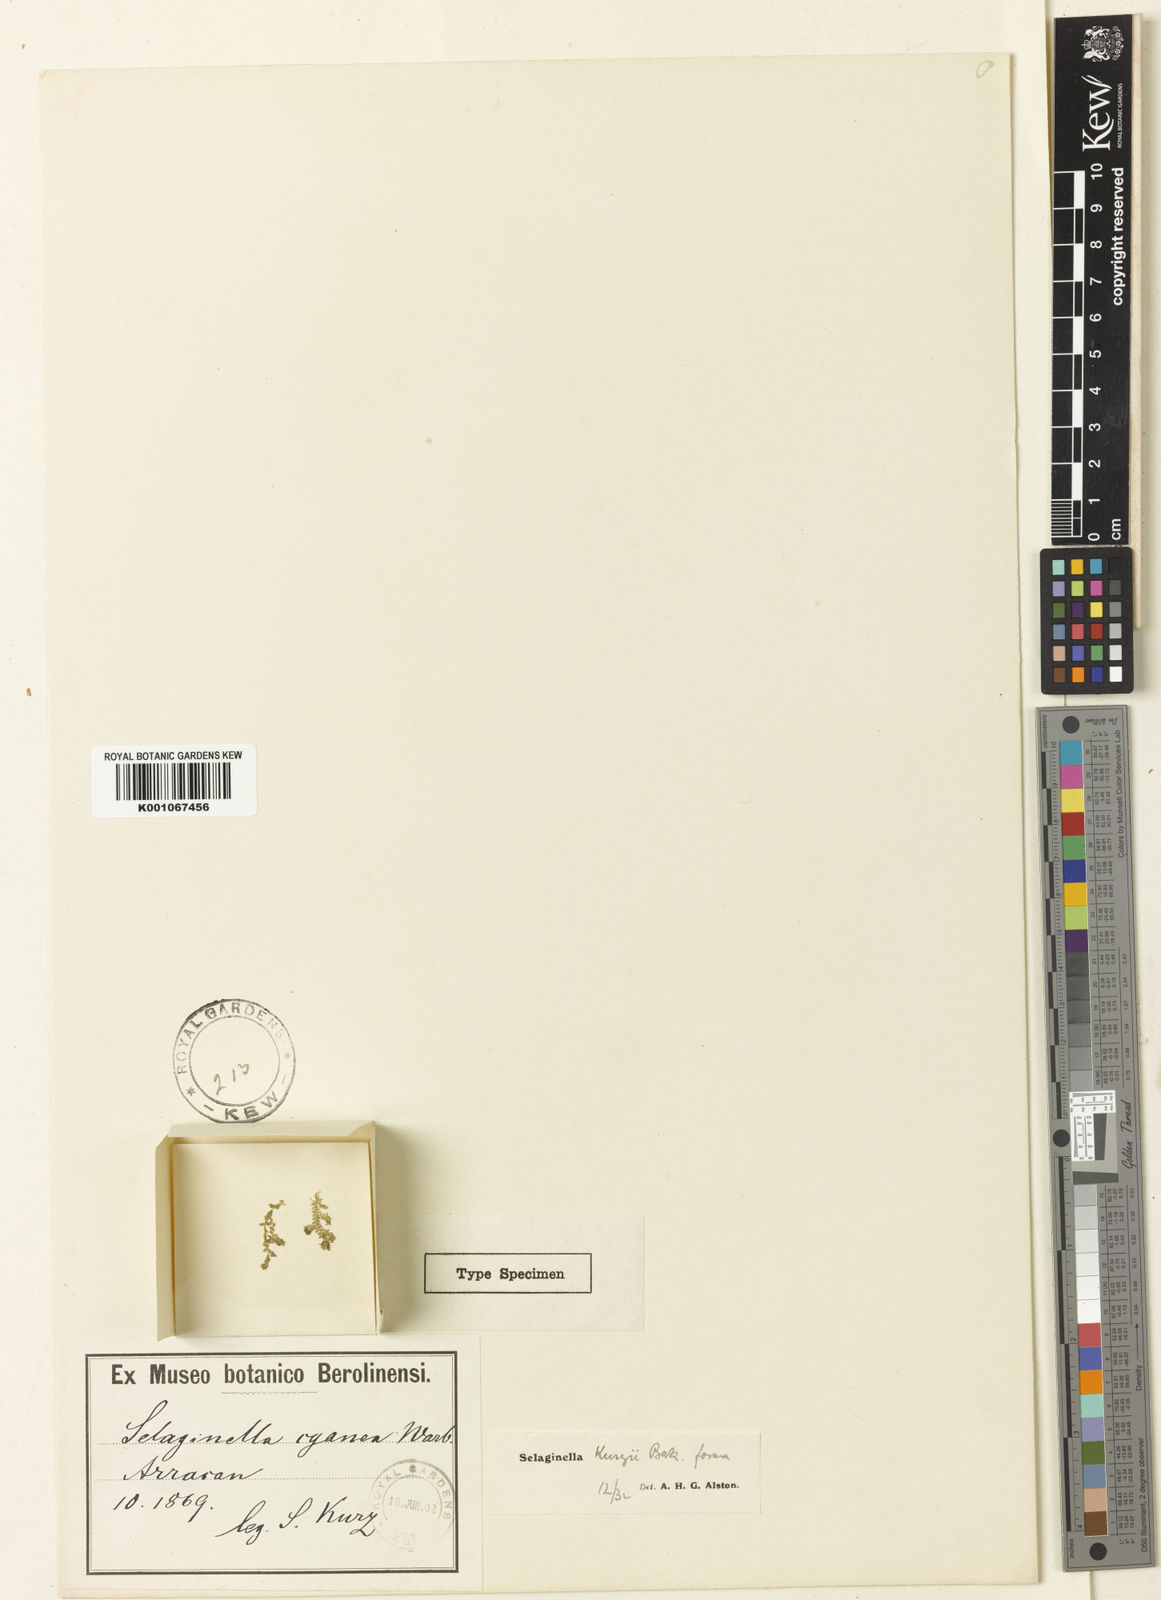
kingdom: Plantae
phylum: Tracheophyta
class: Lycopodiopsida
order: Selaginellales
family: Selaginellaceae
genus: Selaginella
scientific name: Selaginella kurzii
